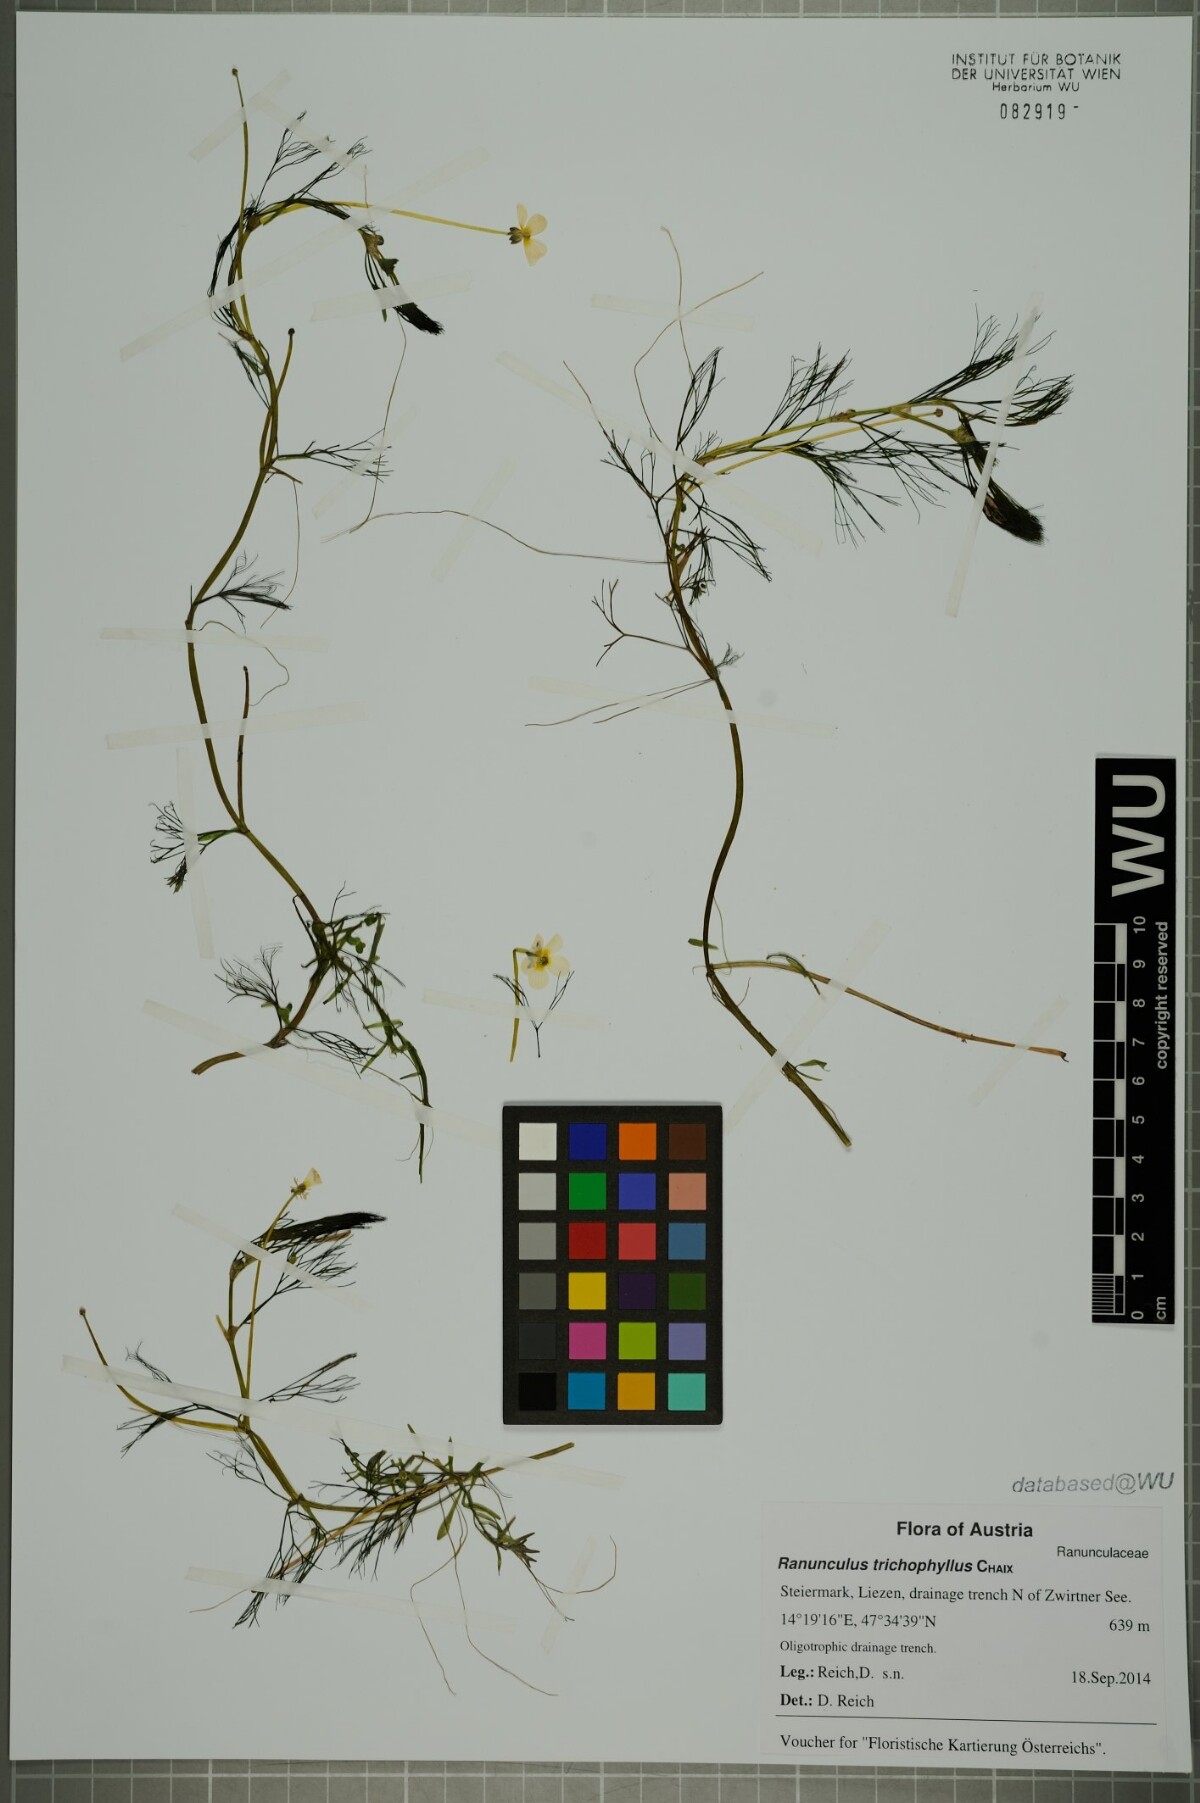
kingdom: Plantae
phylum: Tracheophyta
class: Magnoliopsida
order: Ranunculales
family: Ranunculaceae
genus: Ranunculus
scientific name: Ranunculus trichophyllus
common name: Thread-leaved water-crowfoot
